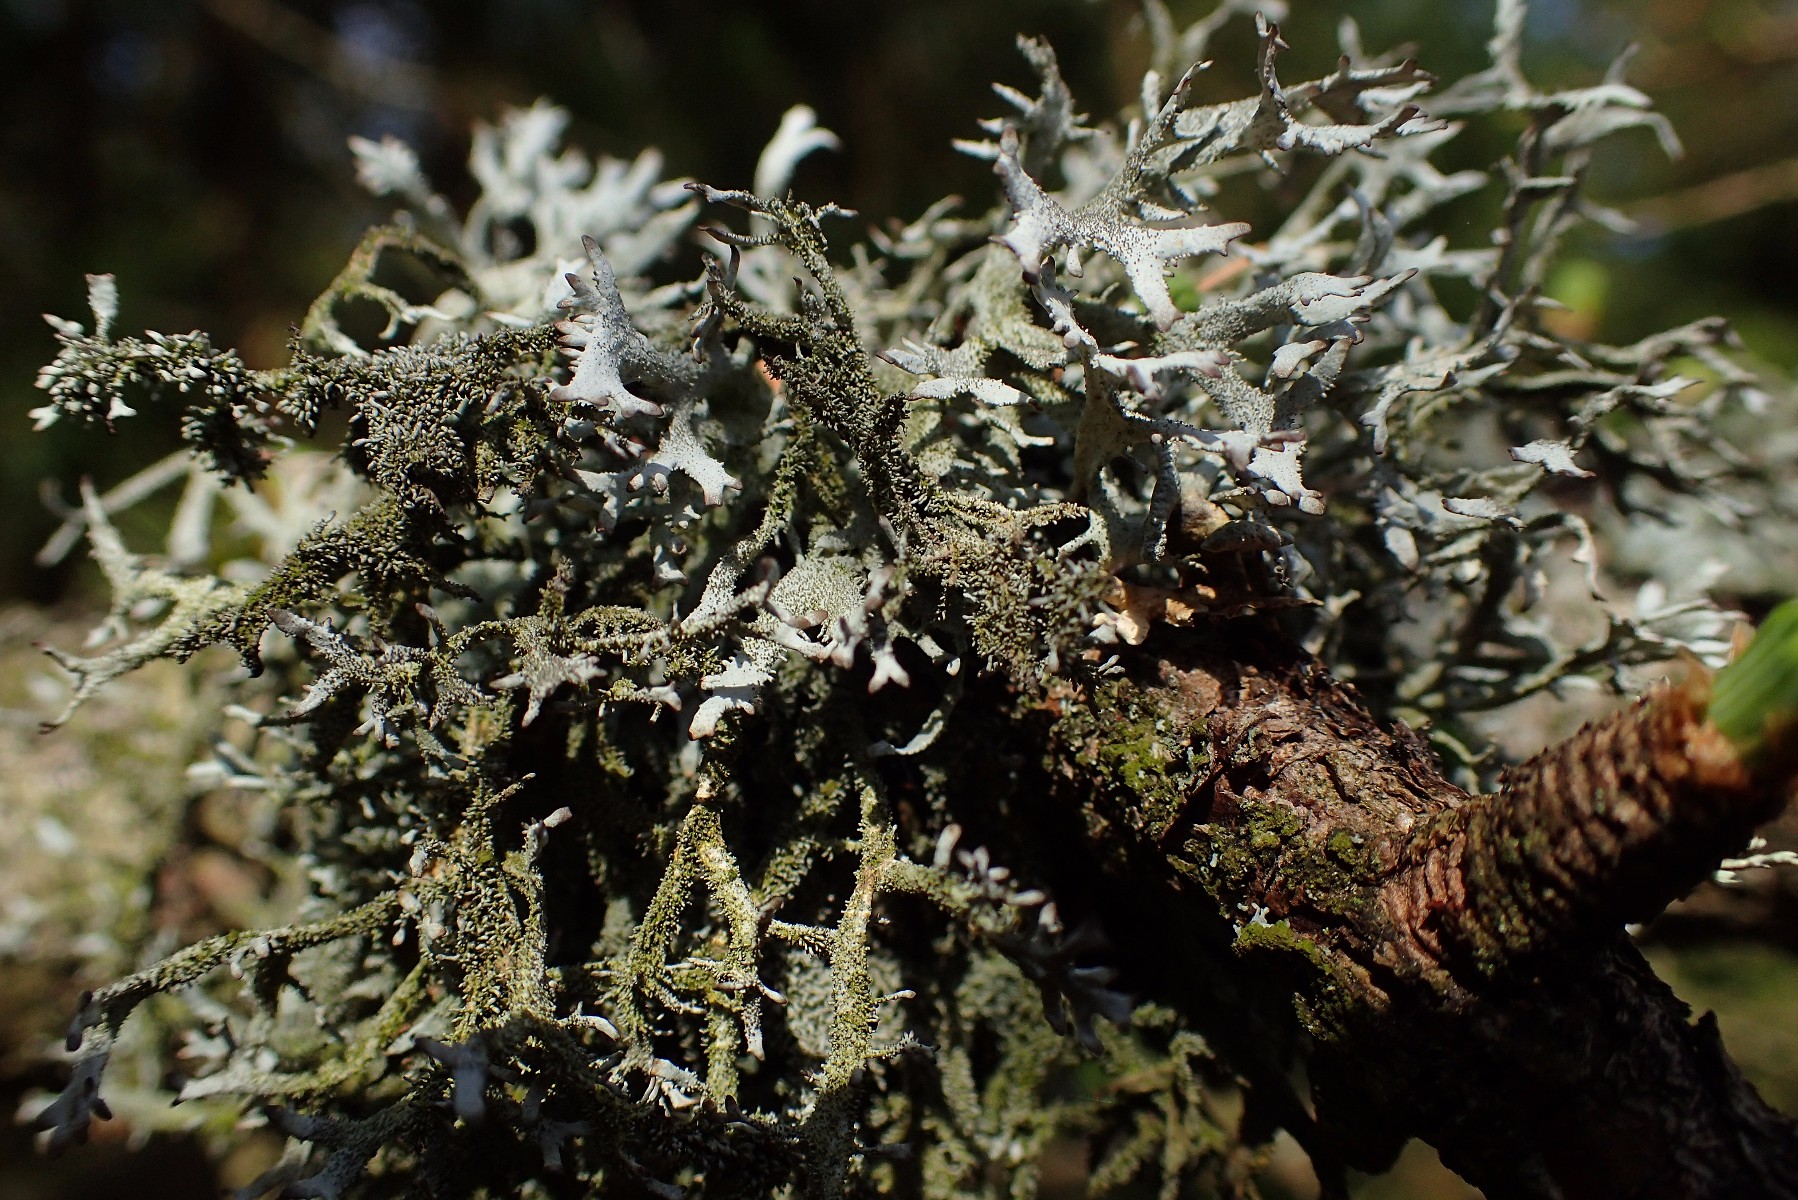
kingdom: Fungi
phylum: Ascomycota
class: Lecanoromycetes
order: Lecanorales
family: Parmeliaceae
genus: Pseudevernia
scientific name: Pseudevernia furfuracea
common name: grå fyrrelav
